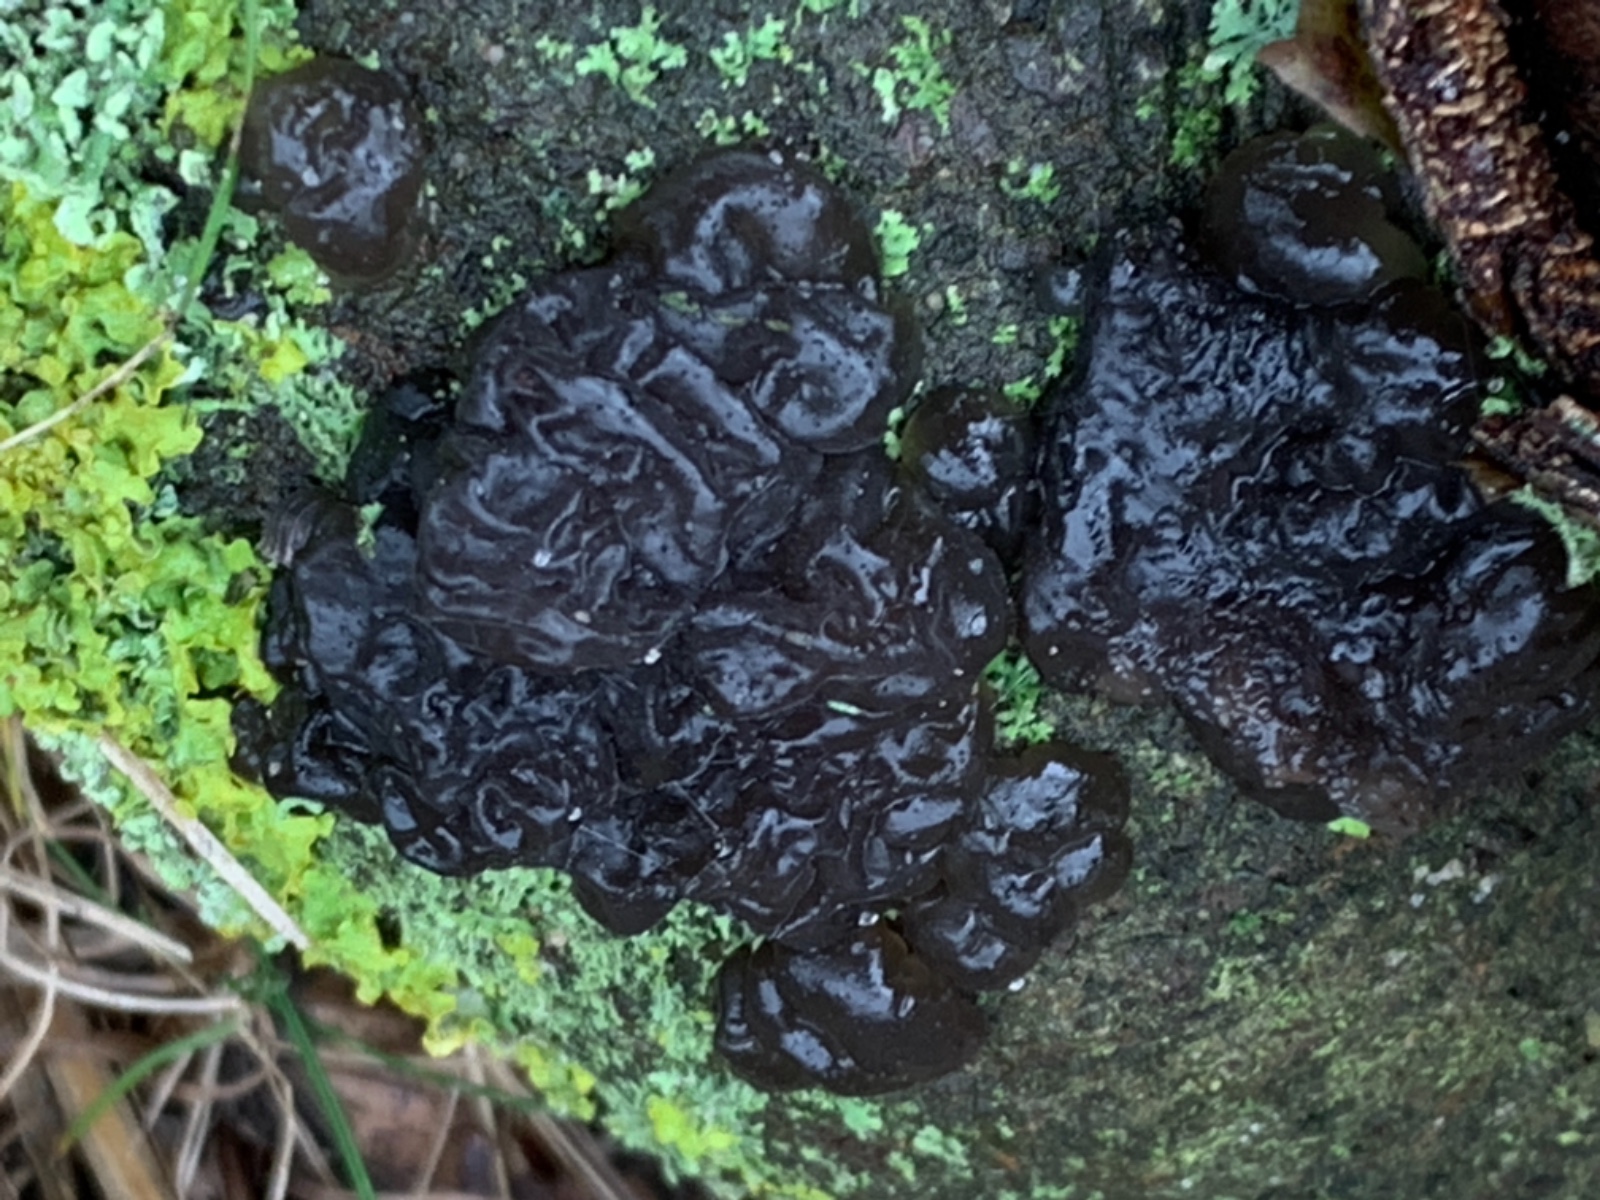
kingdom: Fungi
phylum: Basidiomycota
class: Agaricomycetes
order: Auriculariales
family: Auriculariaceae
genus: Exidia
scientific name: Exidia nigricans
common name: almindelig bævretop
